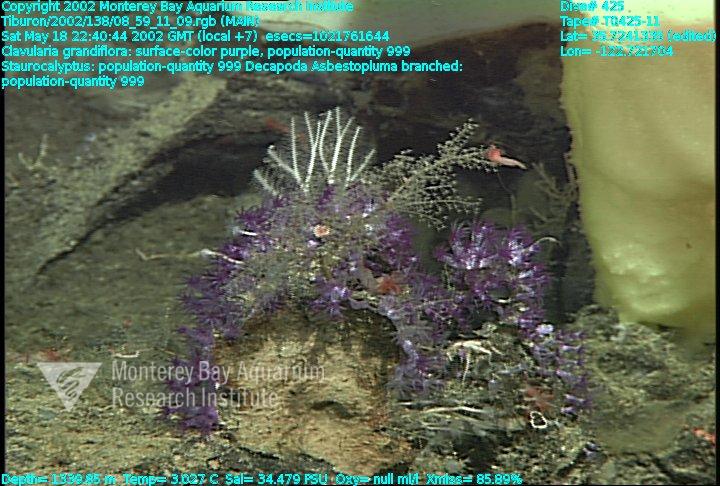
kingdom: Animalia
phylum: Porifera
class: Demospongiae
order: Poecilosclerida
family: Cladorhizidae
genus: Asbestopluma
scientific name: Asbestopluma monticola
